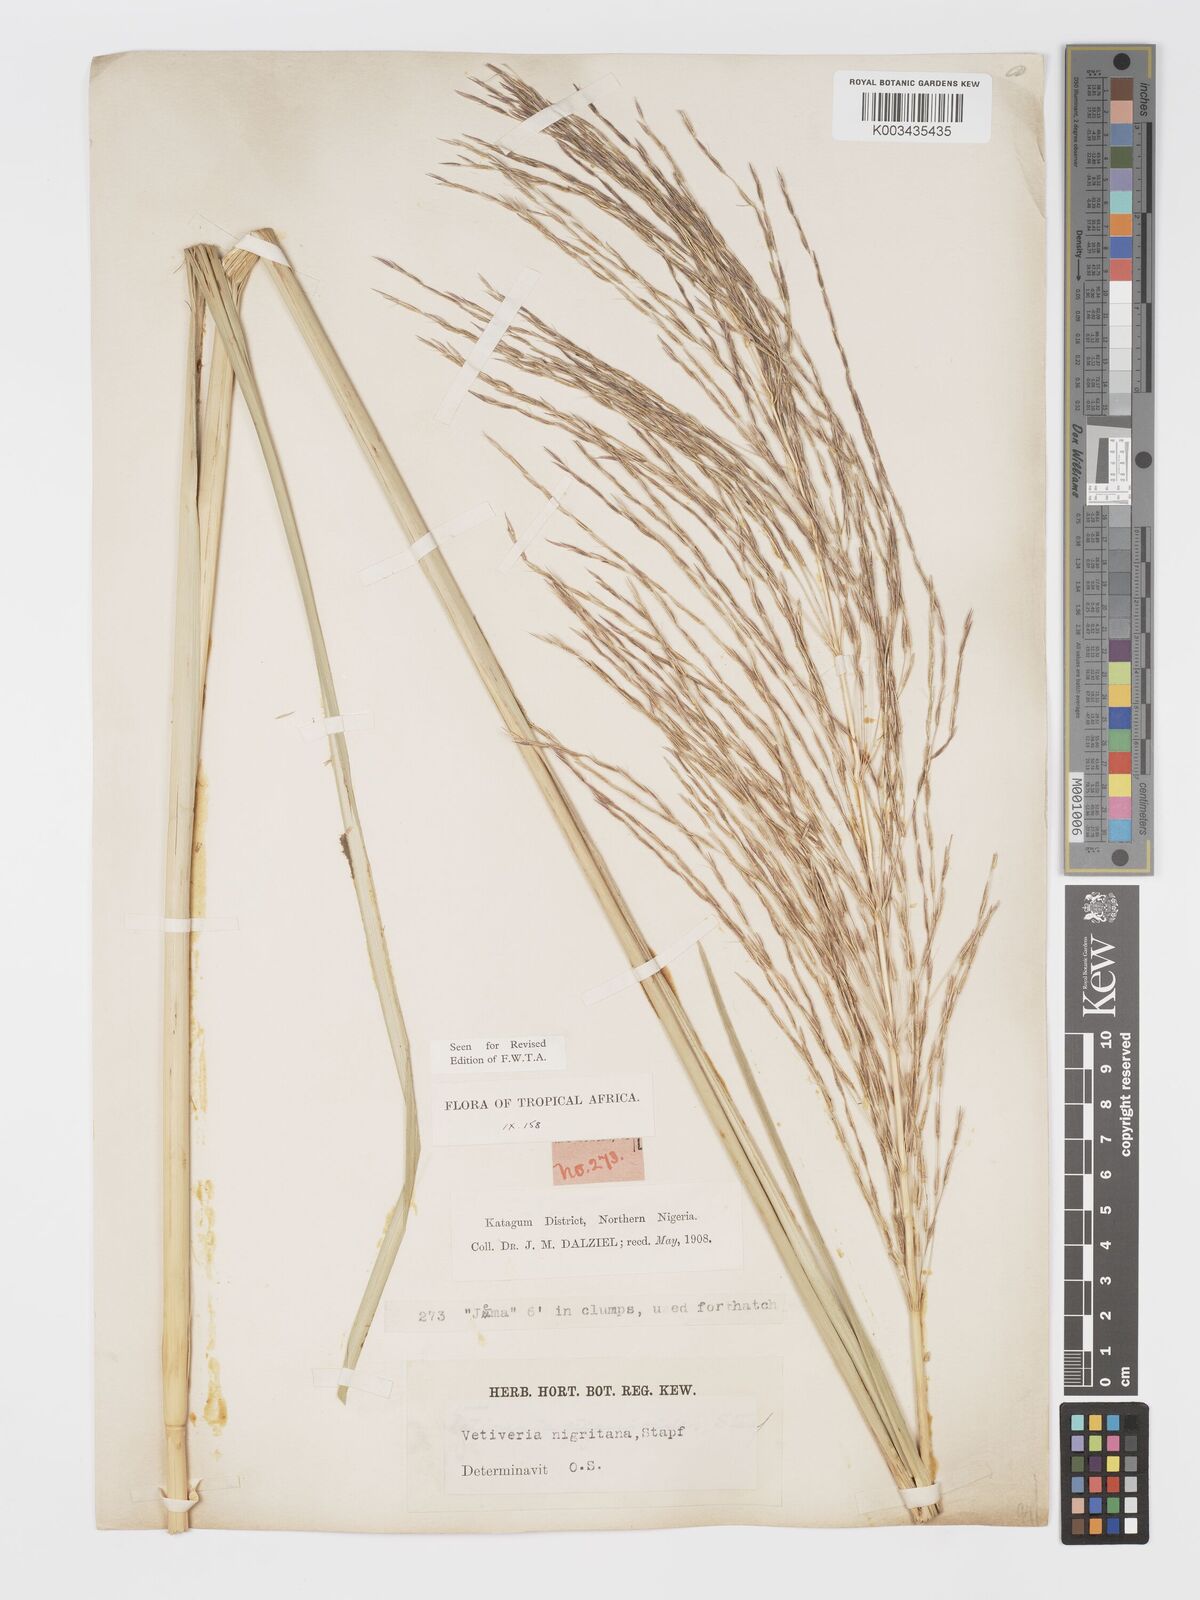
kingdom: Plantae
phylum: Tracheophyta
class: Liliopsida
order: Poales
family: Poaceae
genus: Chrysopogon
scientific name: Chrysopogon nigritanus
